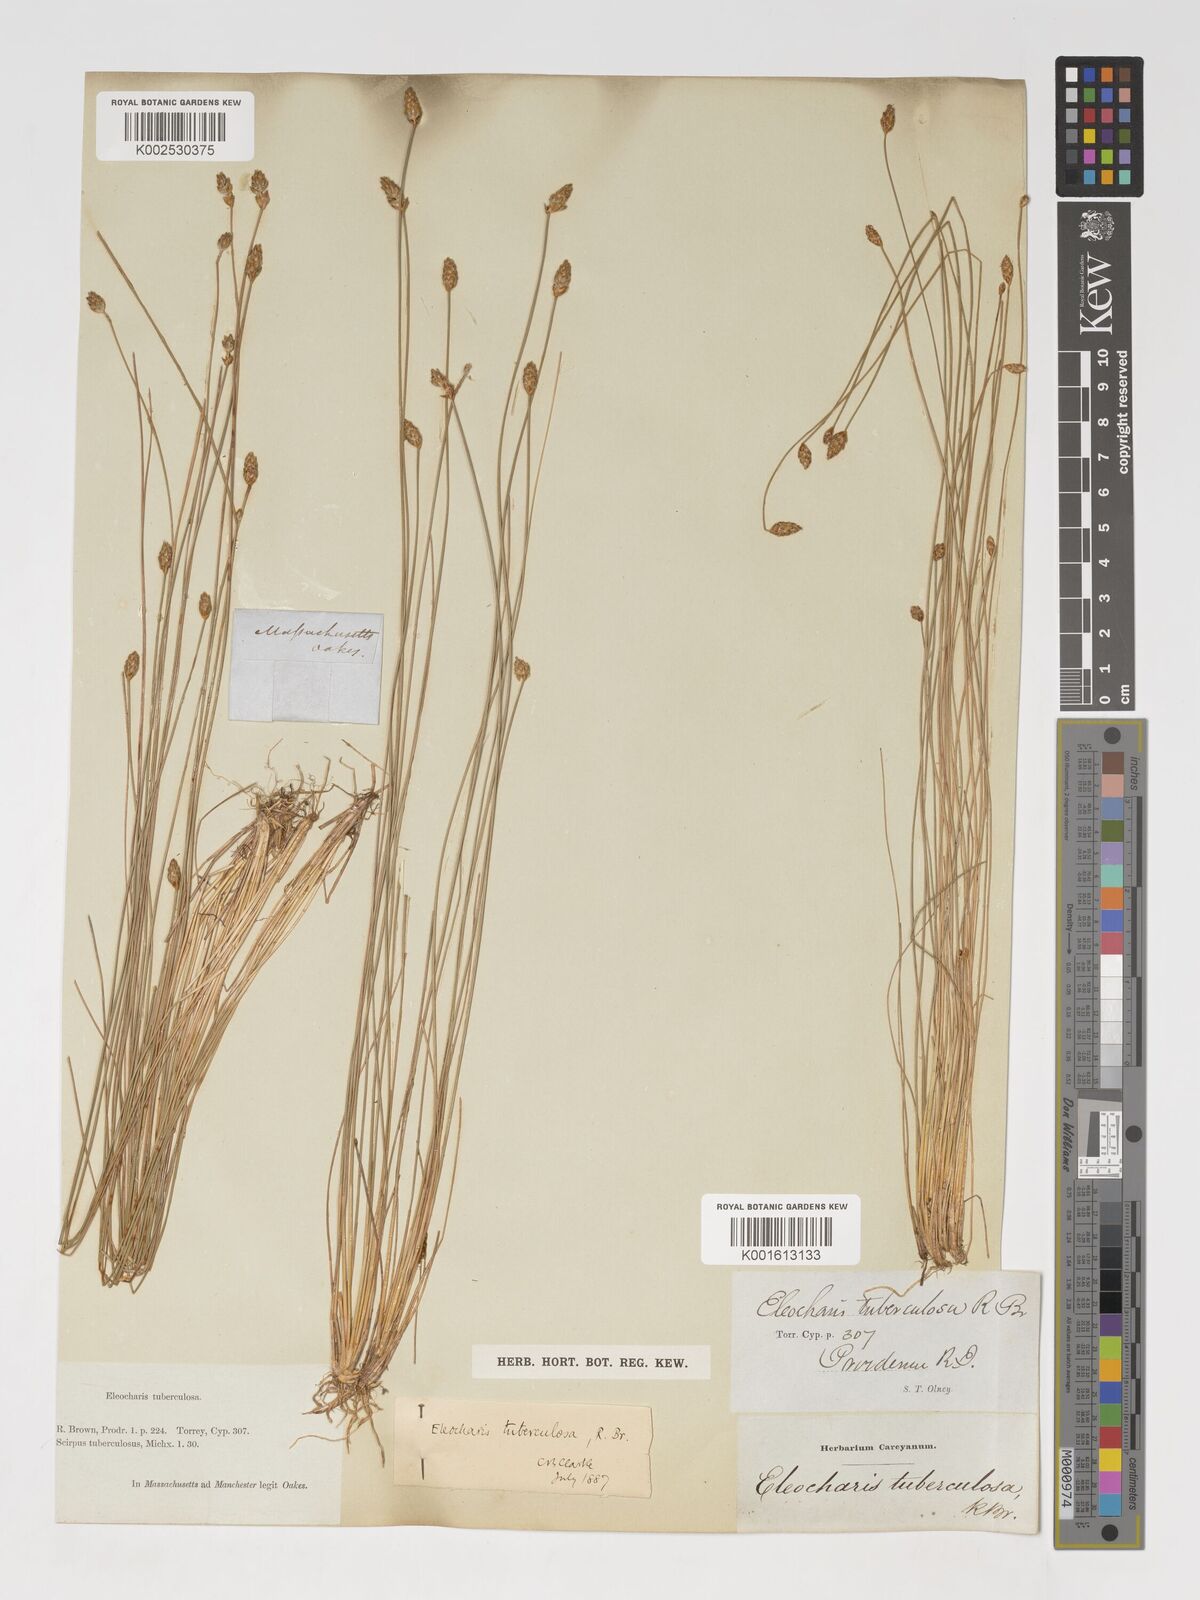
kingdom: Plantae
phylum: Tracheophyta
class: Liliopsida
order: Poales
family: Cyperaceae
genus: Eleocharis
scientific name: Eleocharis tuberculosa
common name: Cone-cup spikerush
